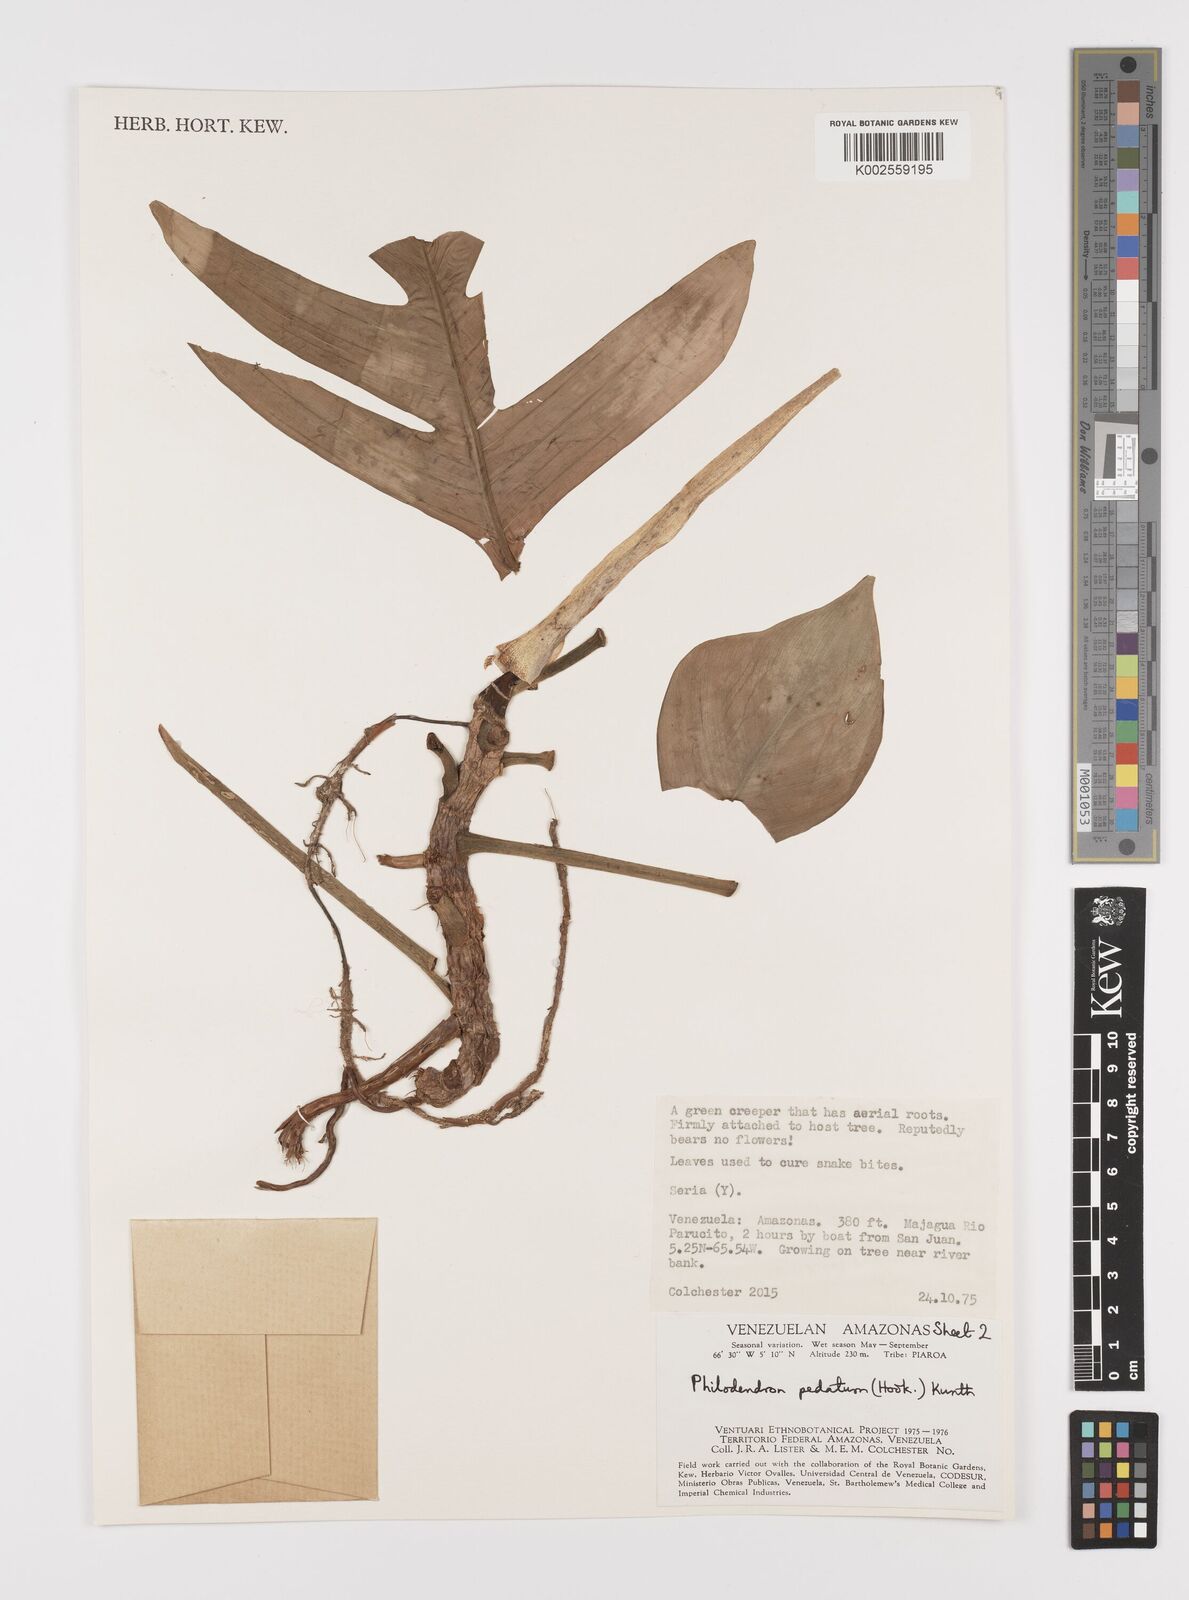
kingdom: Plantae
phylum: Tracheophyta
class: Liliopsida
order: Alismatales
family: Araceae
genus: Philodendron
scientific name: Philodendron pedatum
